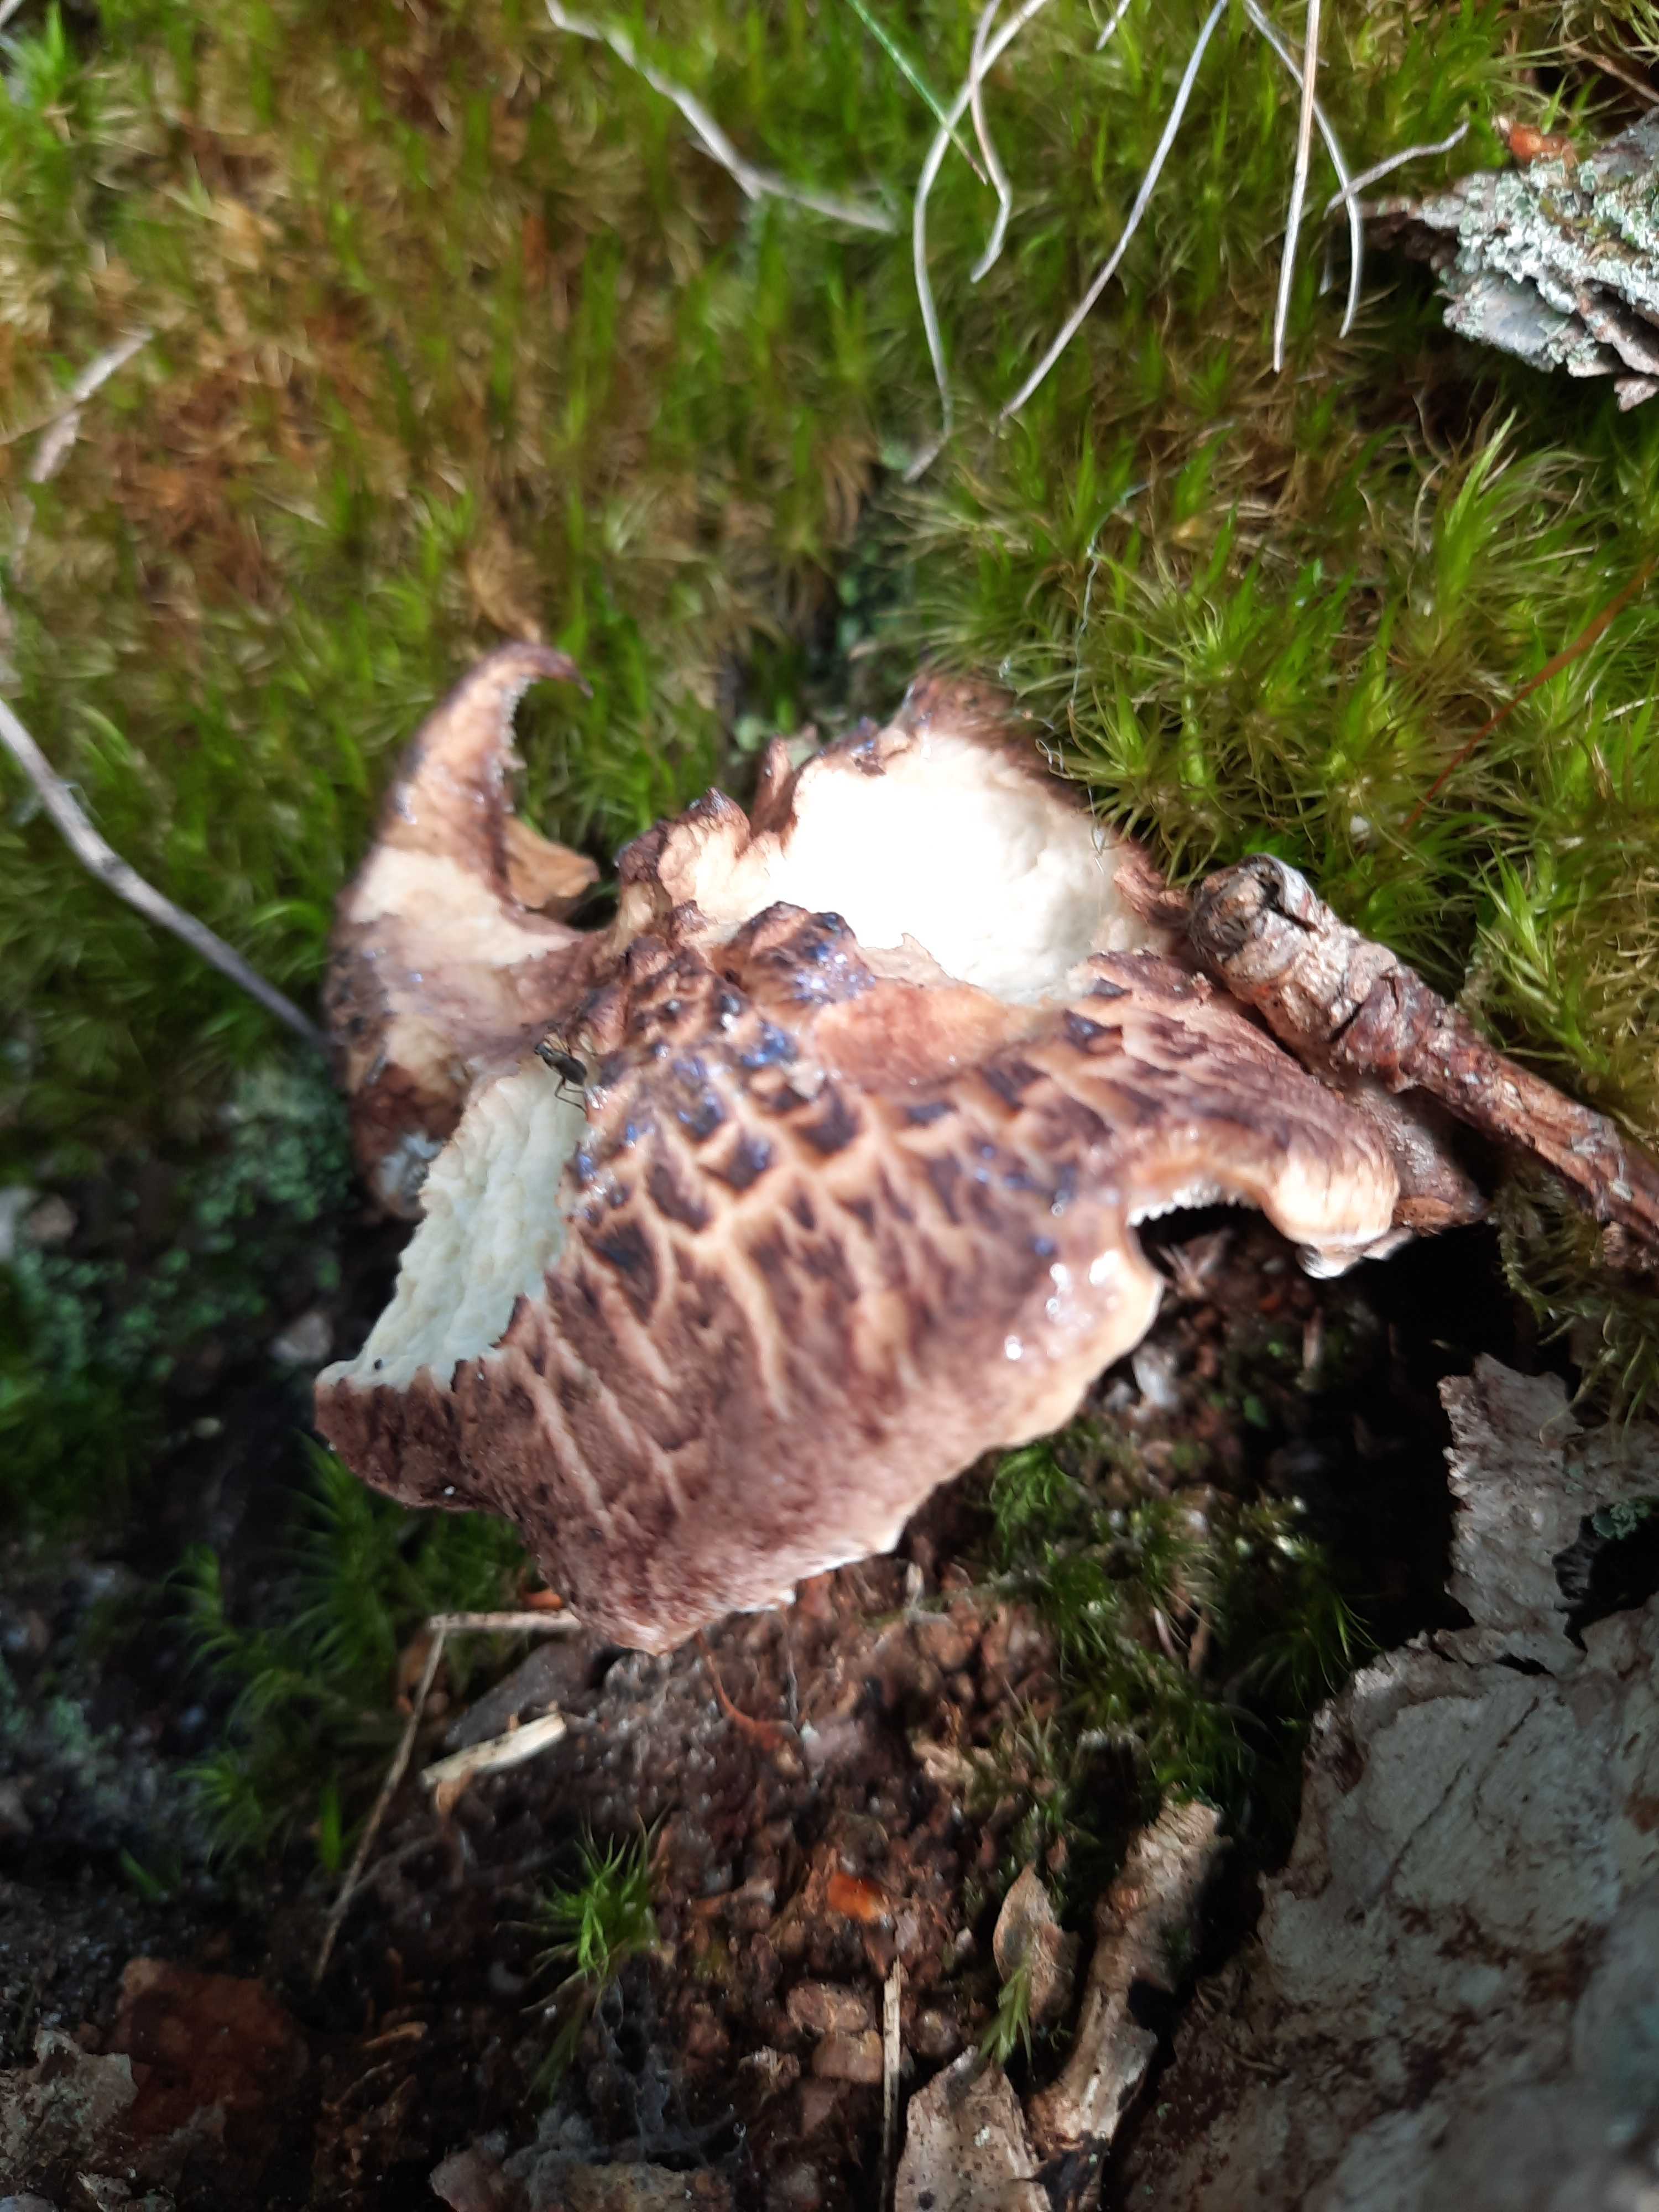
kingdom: Fungi
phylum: Basidiomycota
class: Agaricomycetes
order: Thelephorales
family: Bankeraceae
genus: Hydnellum
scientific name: Hydnellum fagiscabrosum
